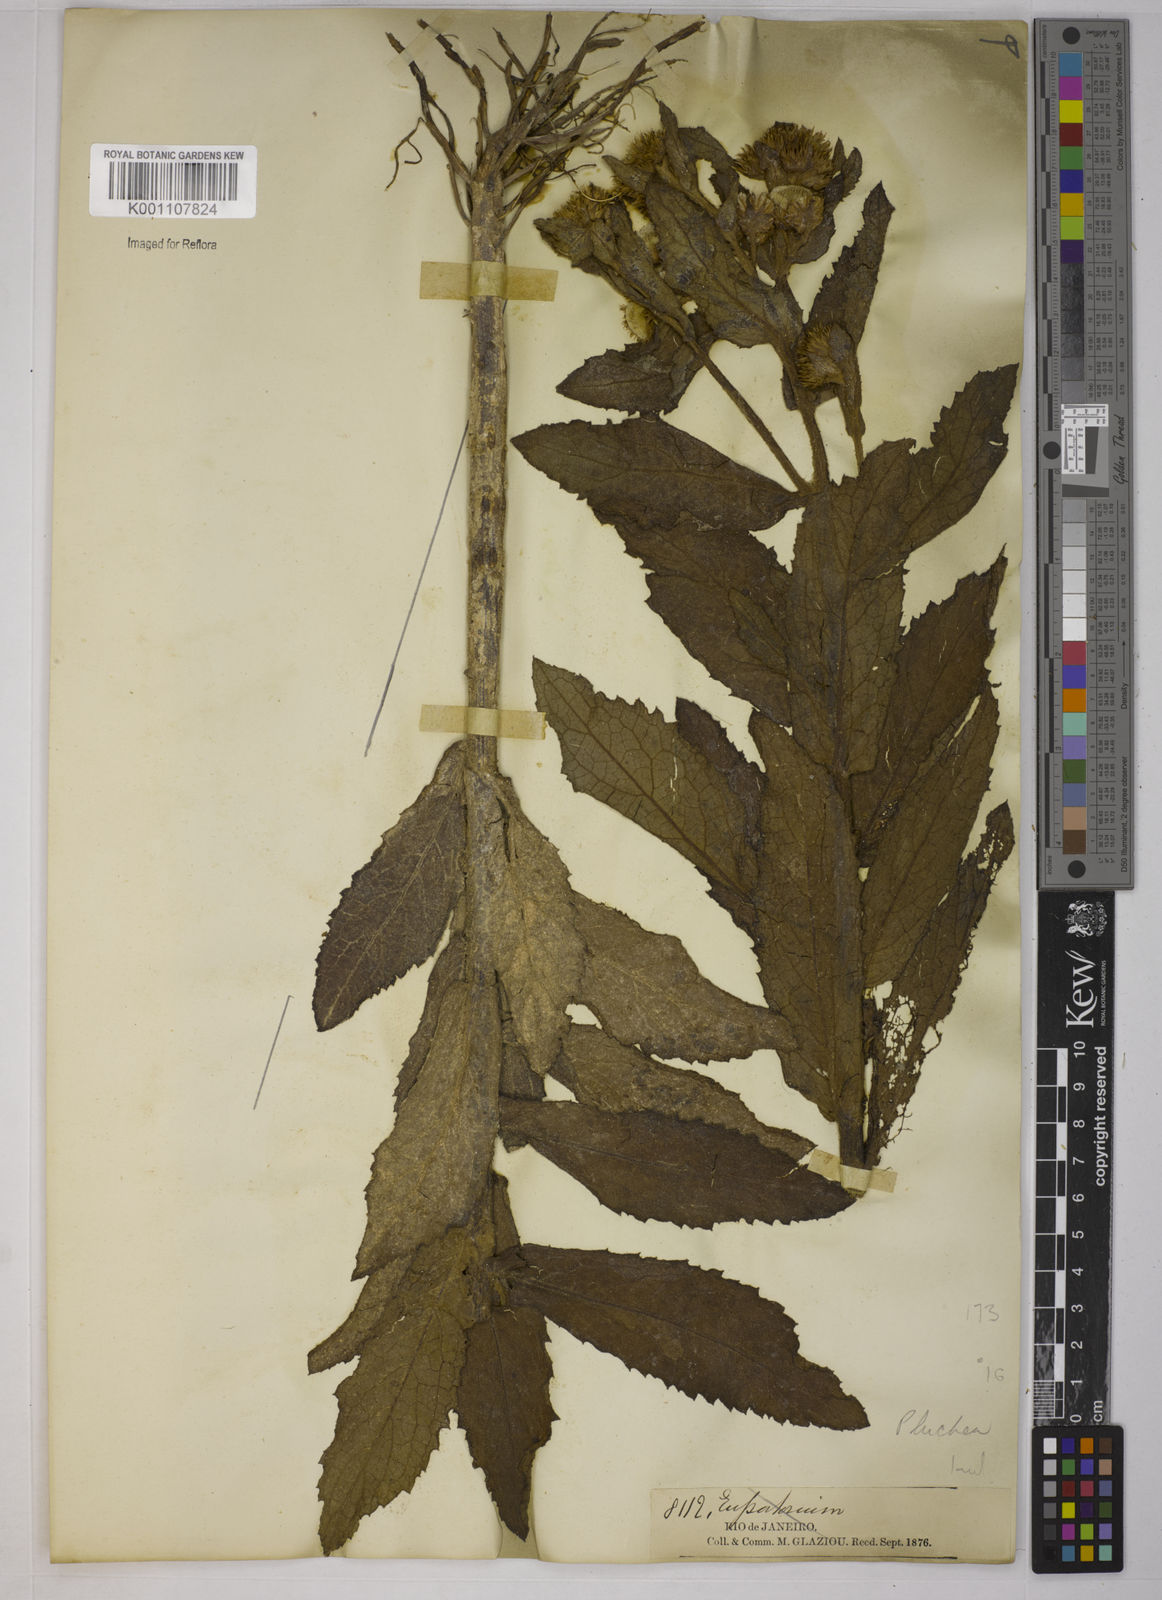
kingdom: Plantae
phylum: Tracheophyta
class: Magnoliopsida
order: Asterales
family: Asteraceae
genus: Pluchea
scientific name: Pluchea
